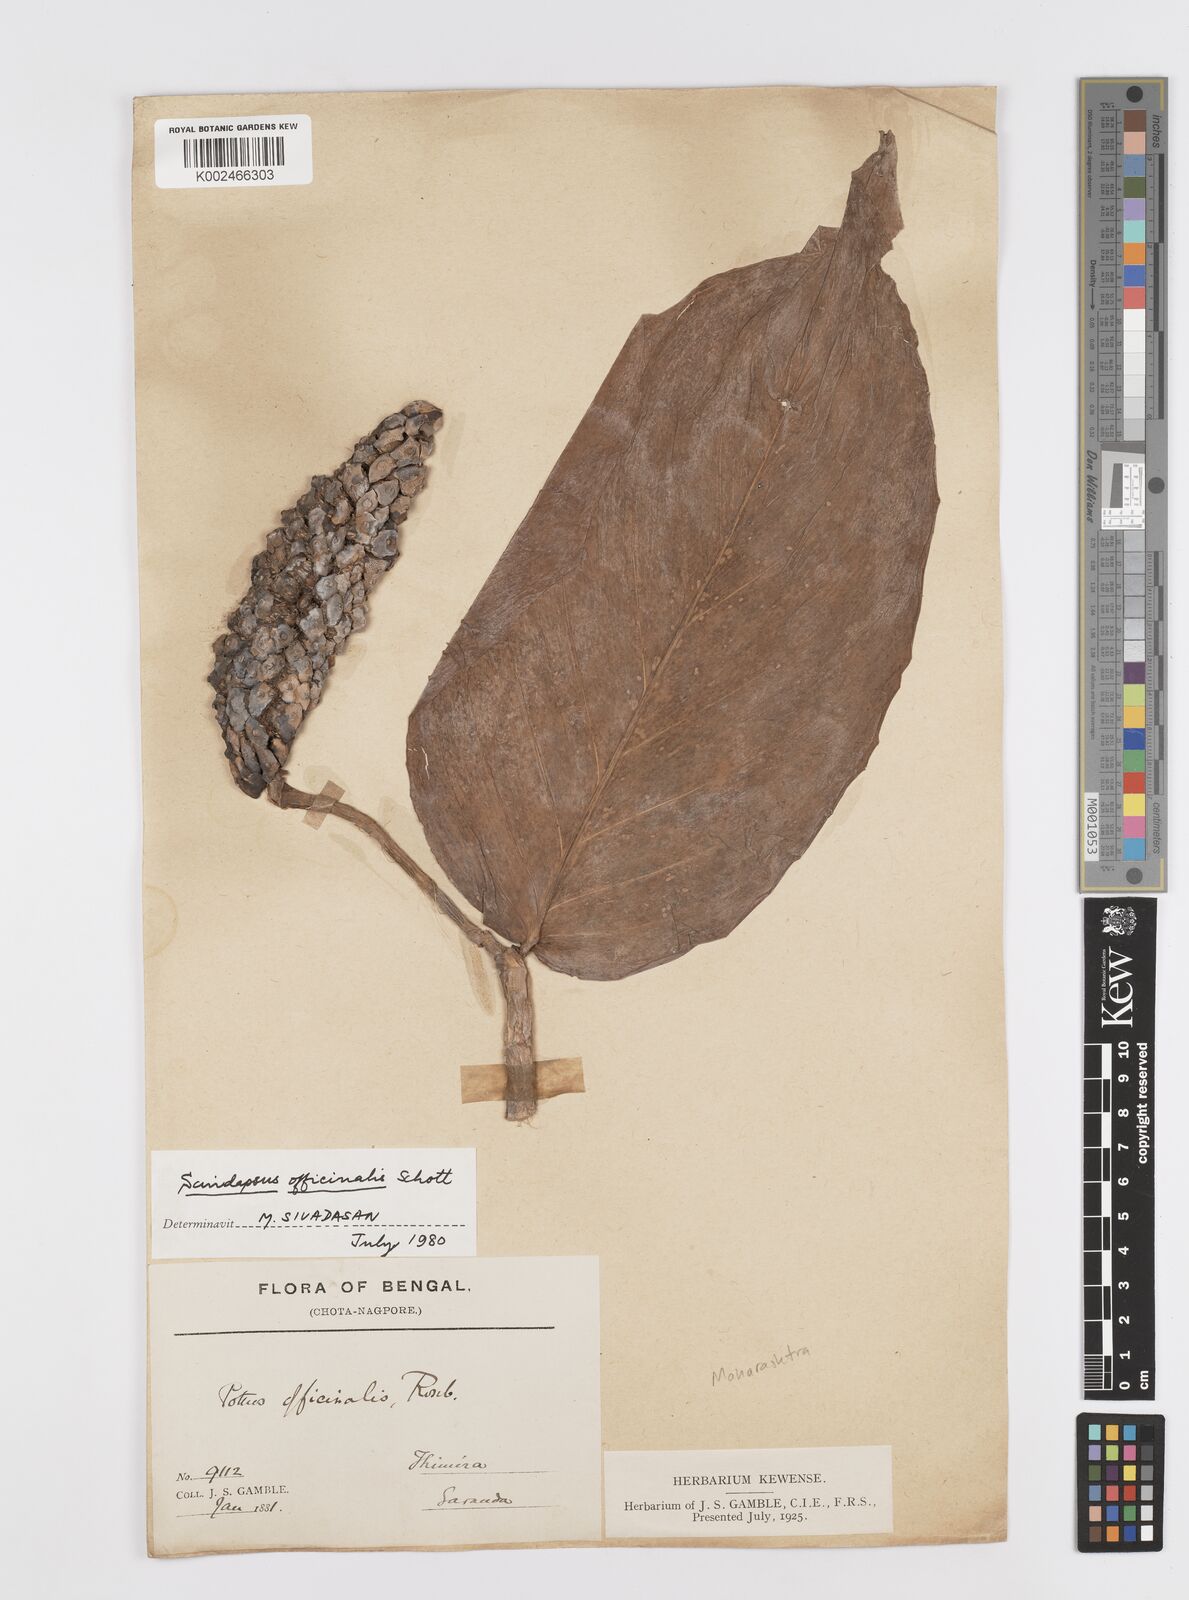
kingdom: Plantae
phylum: Tracheophyta
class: Liliopsida
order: Alismatales
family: Araceae
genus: Scindapsus
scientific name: Scindapsus officinalis
